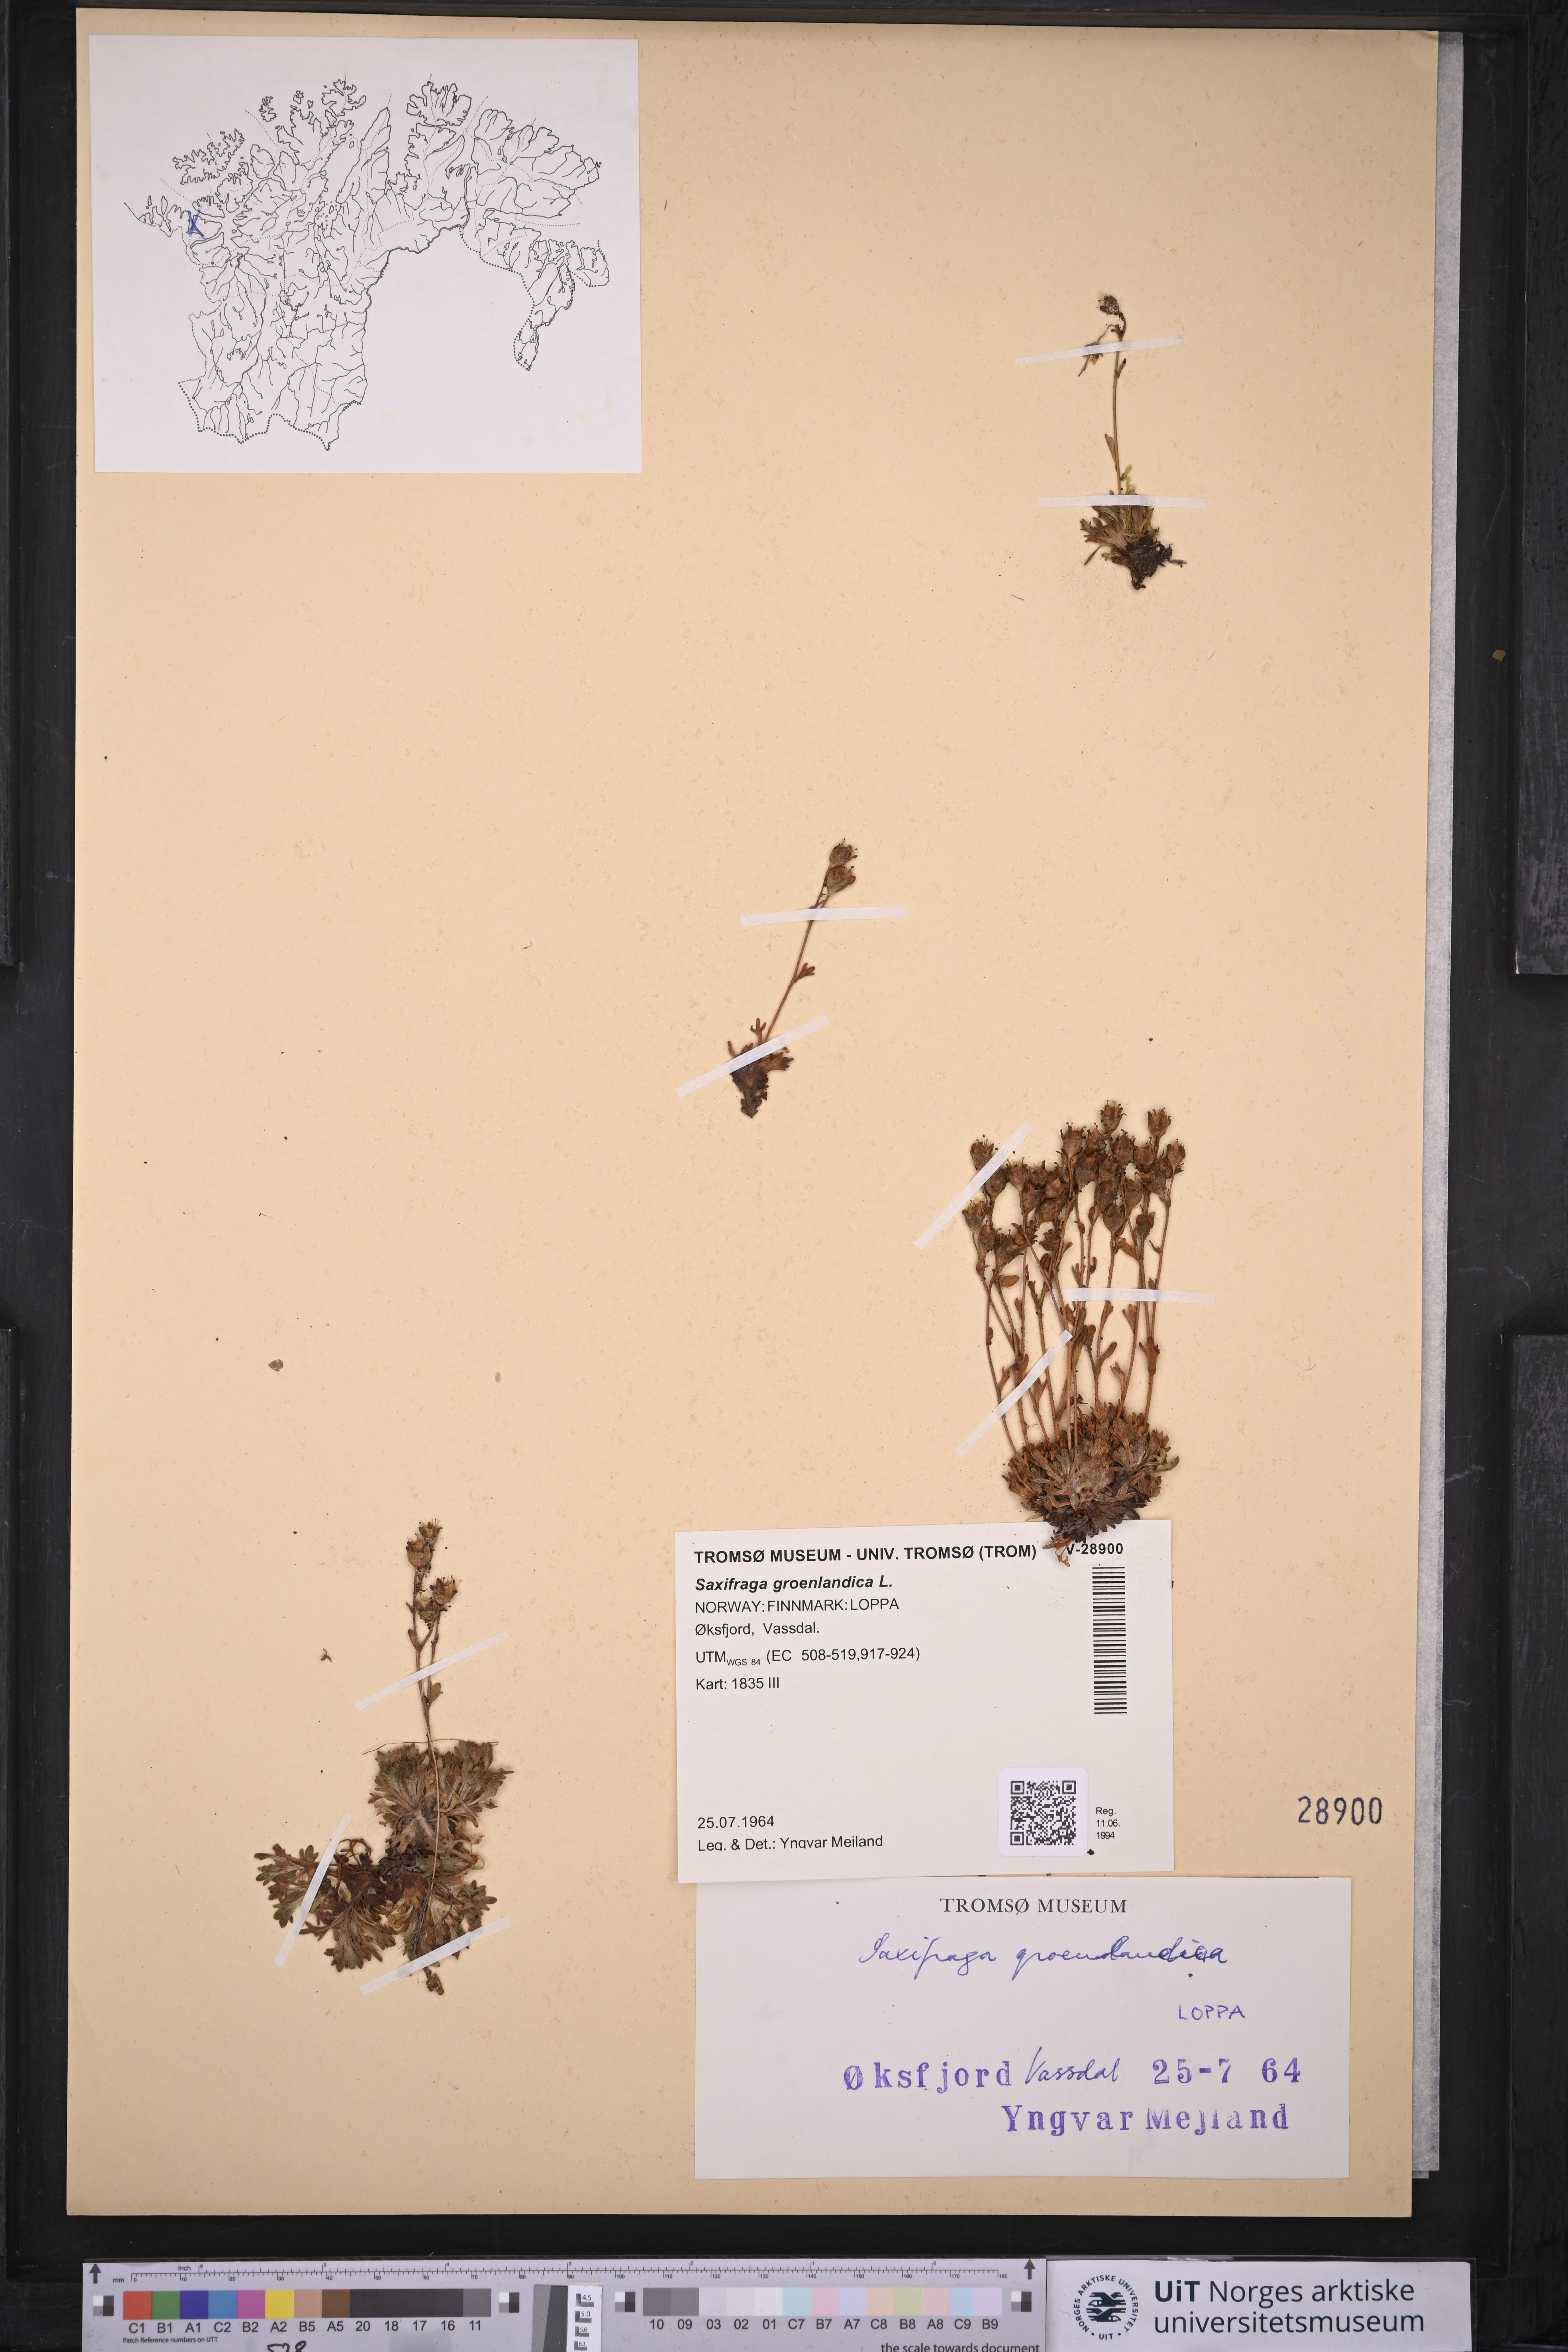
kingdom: Plantae
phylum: Tracheophyta
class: Magnoliopsida
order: Saxifragales
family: Saxifragaceae
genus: Saxifraga
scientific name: Saxifraga cespitosa
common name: Tufted saxifrage
